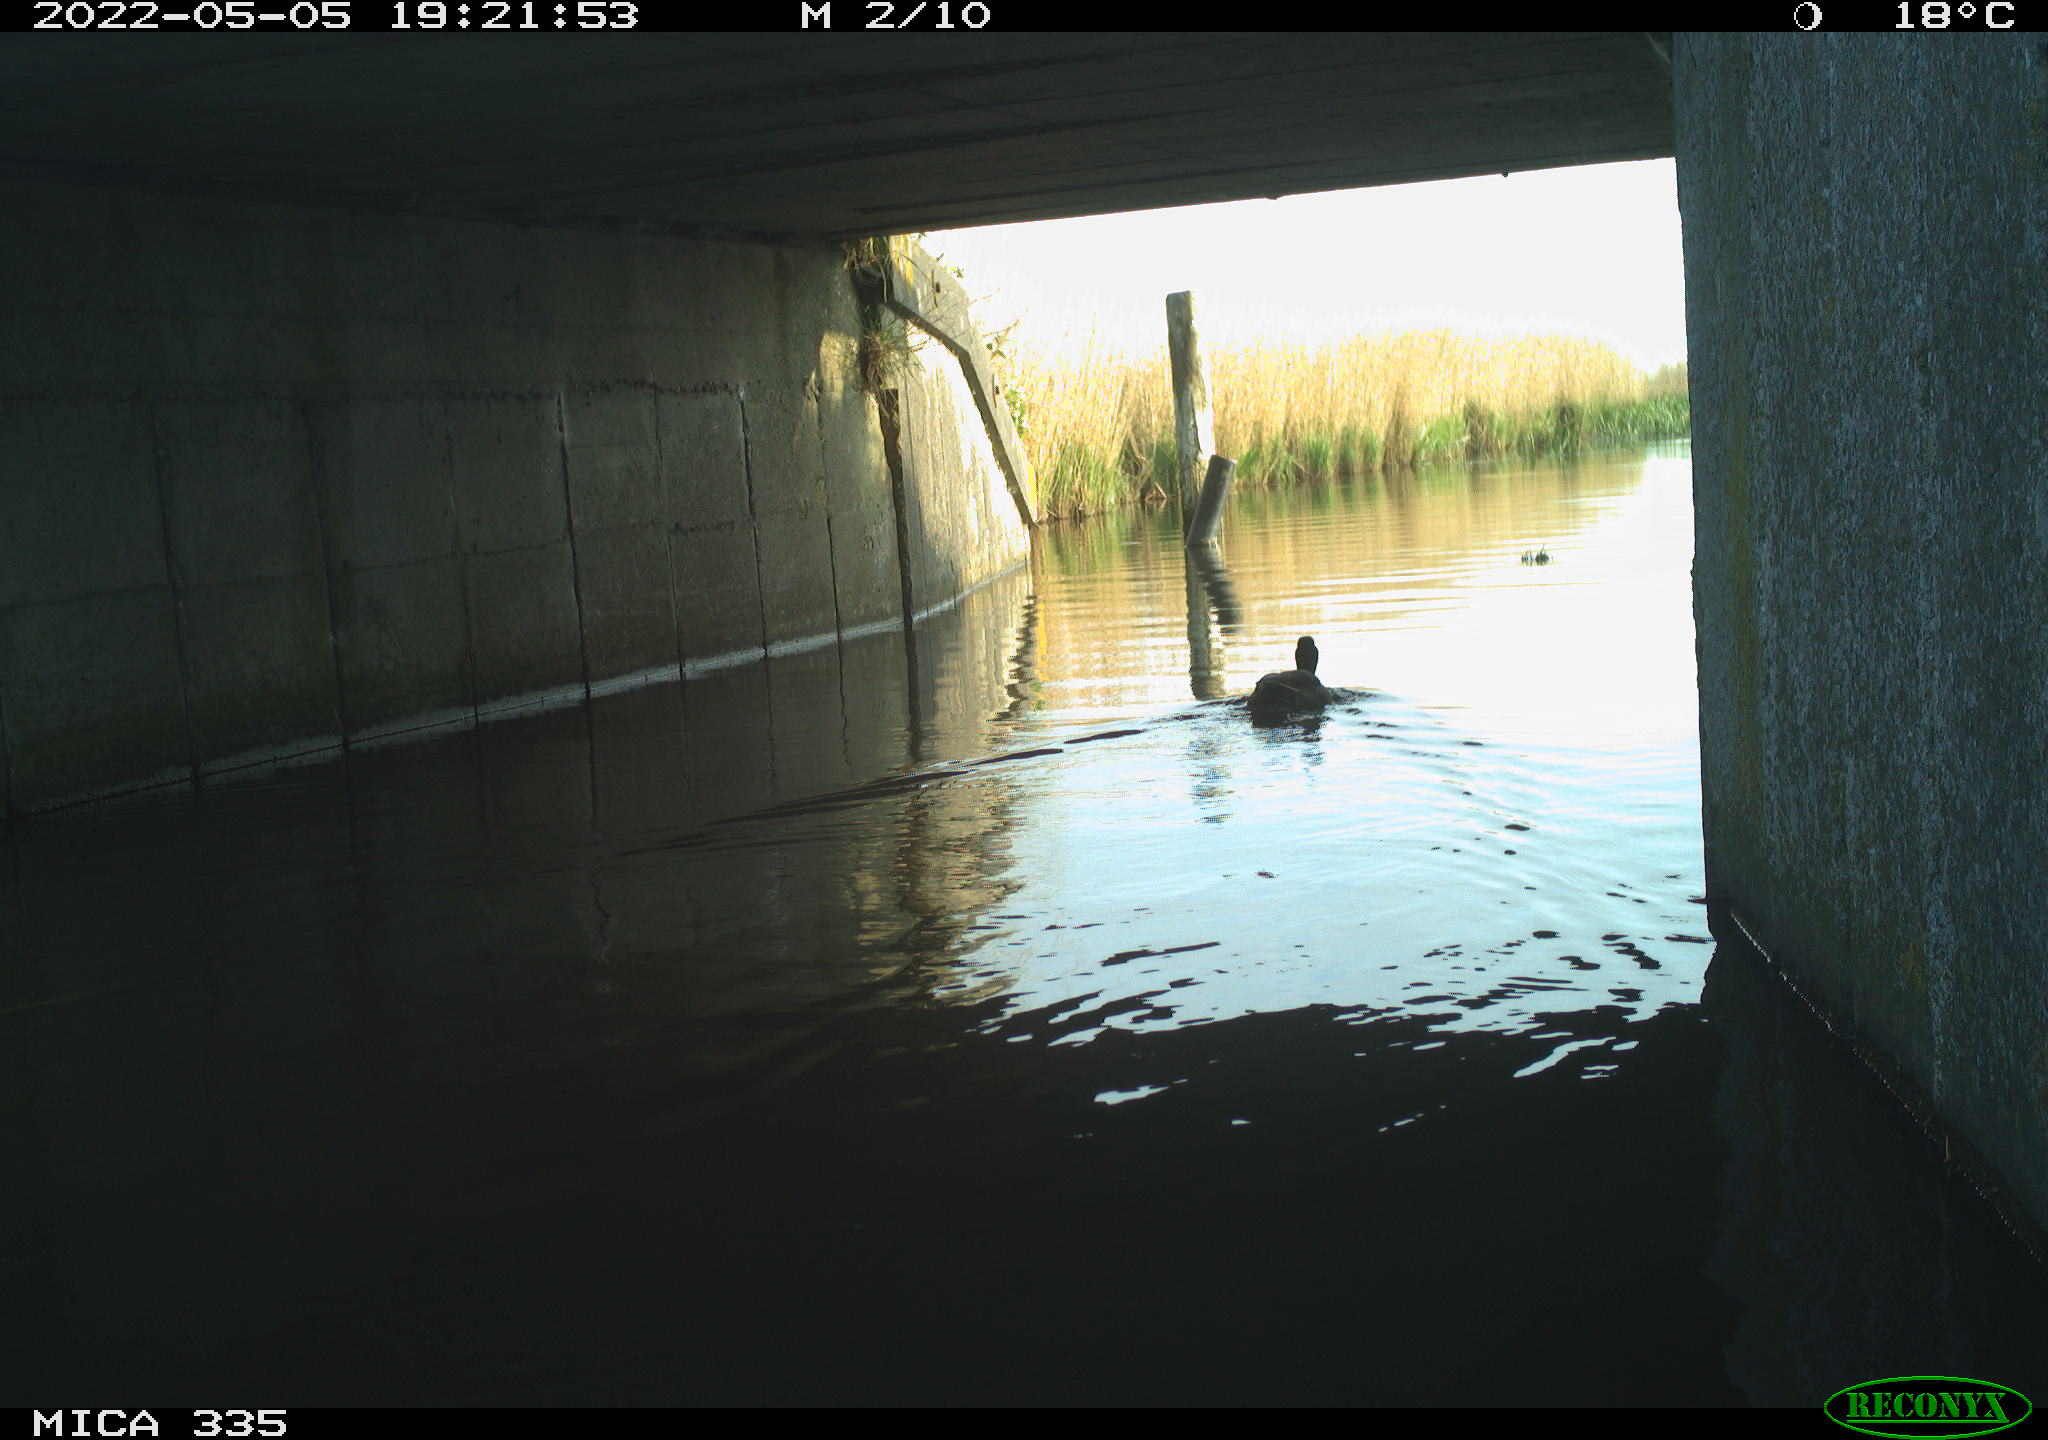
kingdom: Animalia
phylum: Chordata
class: Aves
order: Anseriformes
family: Anatidae
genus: Anas
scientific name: Anas platyrhynchos
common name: Mallard
